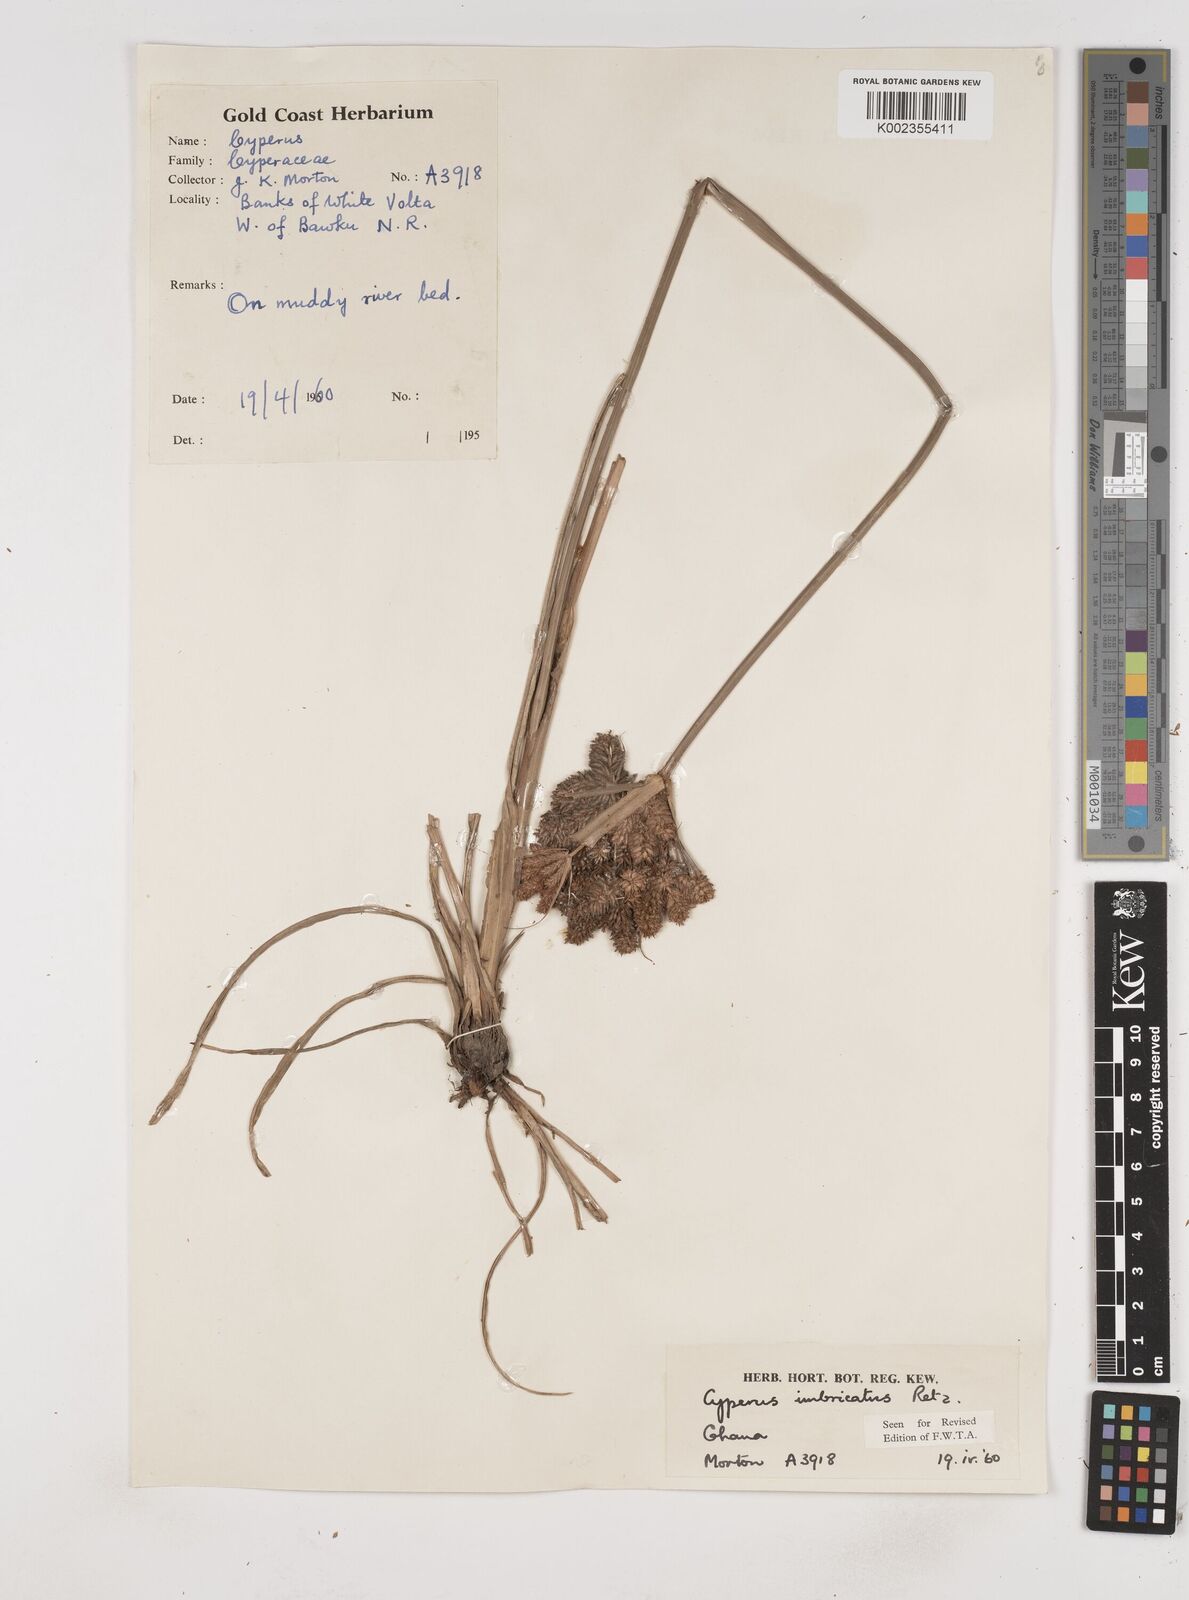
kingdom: Plantae
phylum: Tracheophyta
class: Liliopsida
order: Poales
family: Cyperaceae
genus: Cyperus
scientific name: Cyperus imbricatus
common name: Shingle flatsedge
